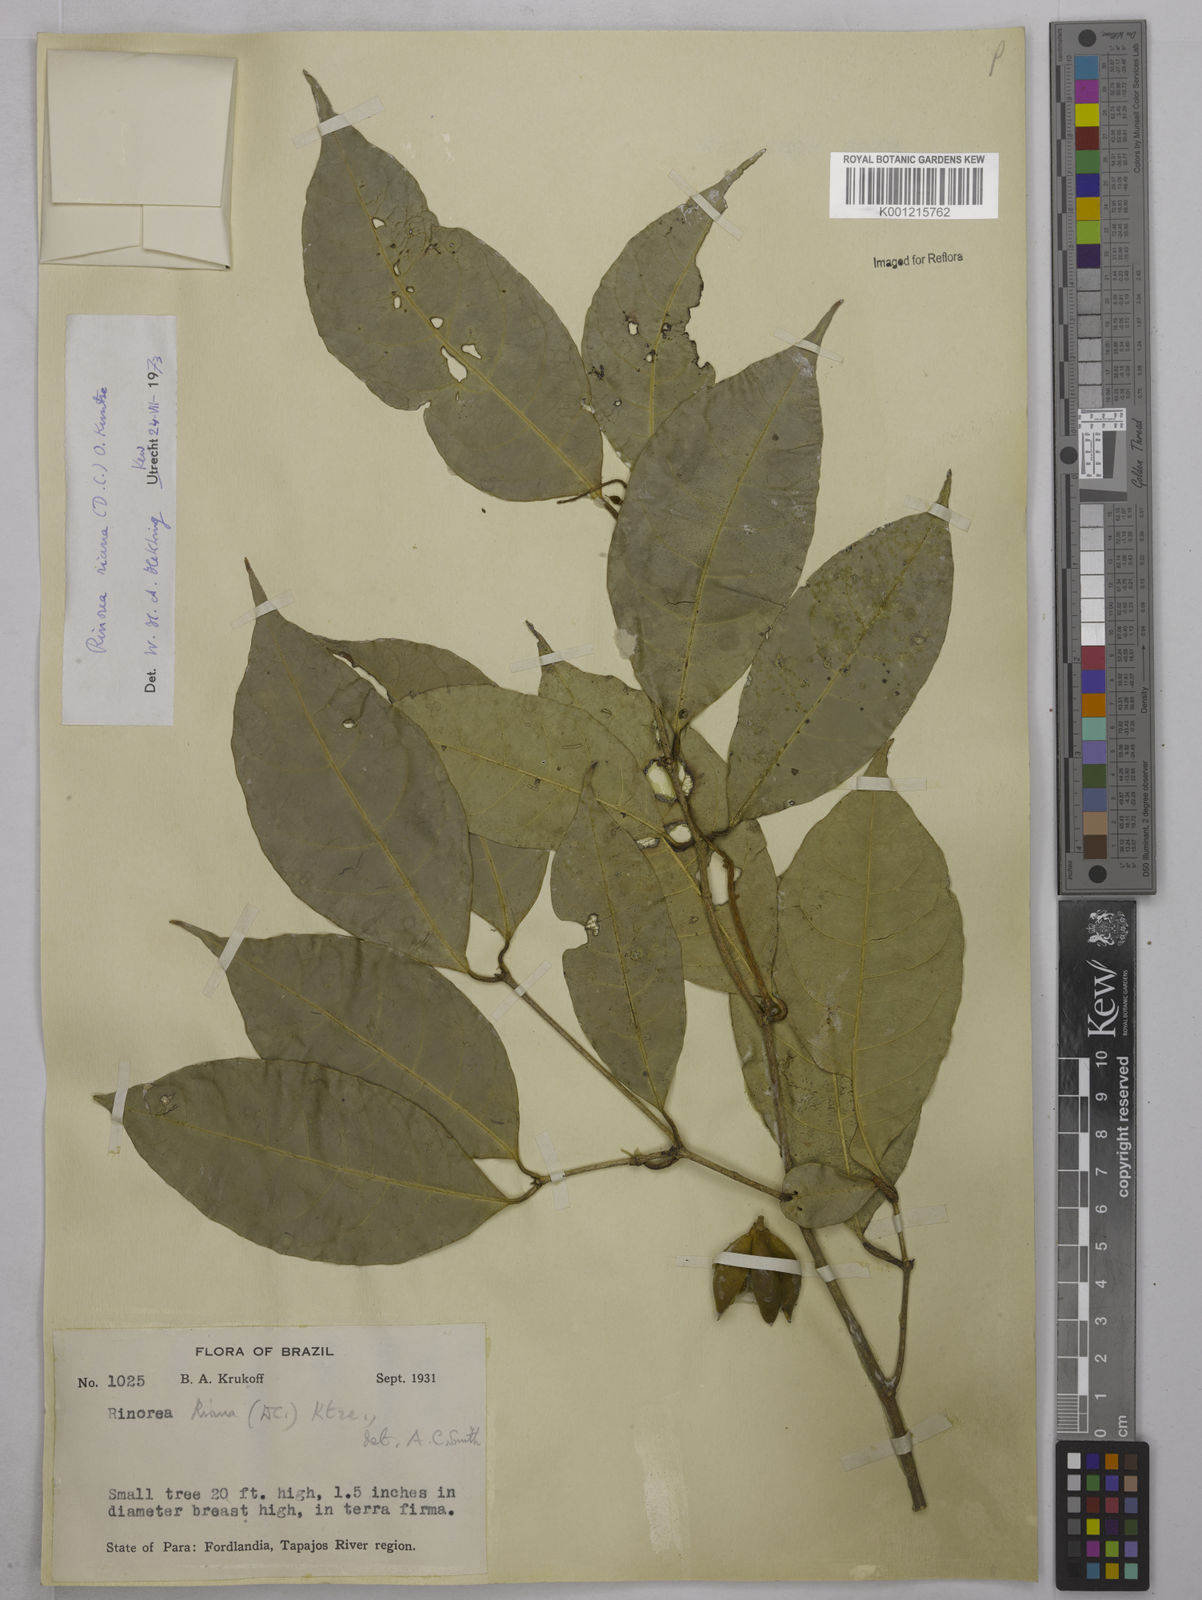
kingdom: Plantae
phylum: Tracheophyta
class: Magnoliopsida
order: Malpighiales
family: Violaceae
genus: Rinorea
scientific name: Rinorea riana
